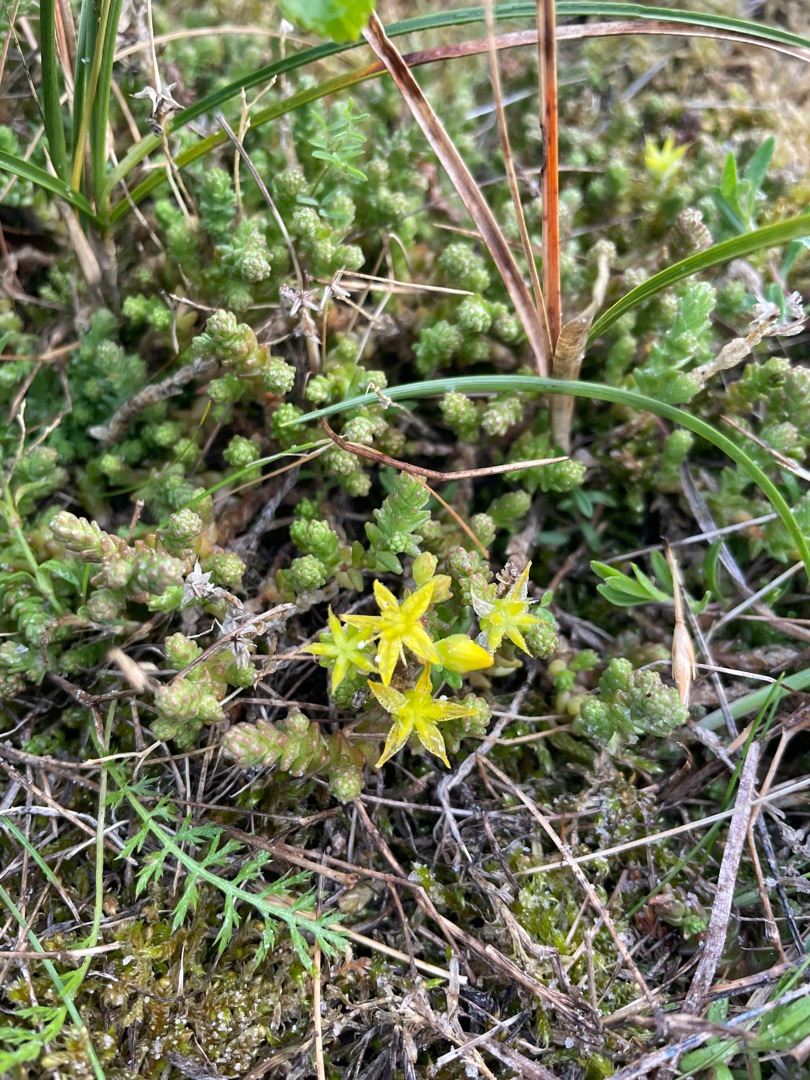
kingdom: Plantae
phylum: Tracheophyta
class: Magnoliopsida
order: Saxifragales
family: Crassulaceae
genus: Sedum
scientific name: Sedum acre
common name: Bidende stenurt
